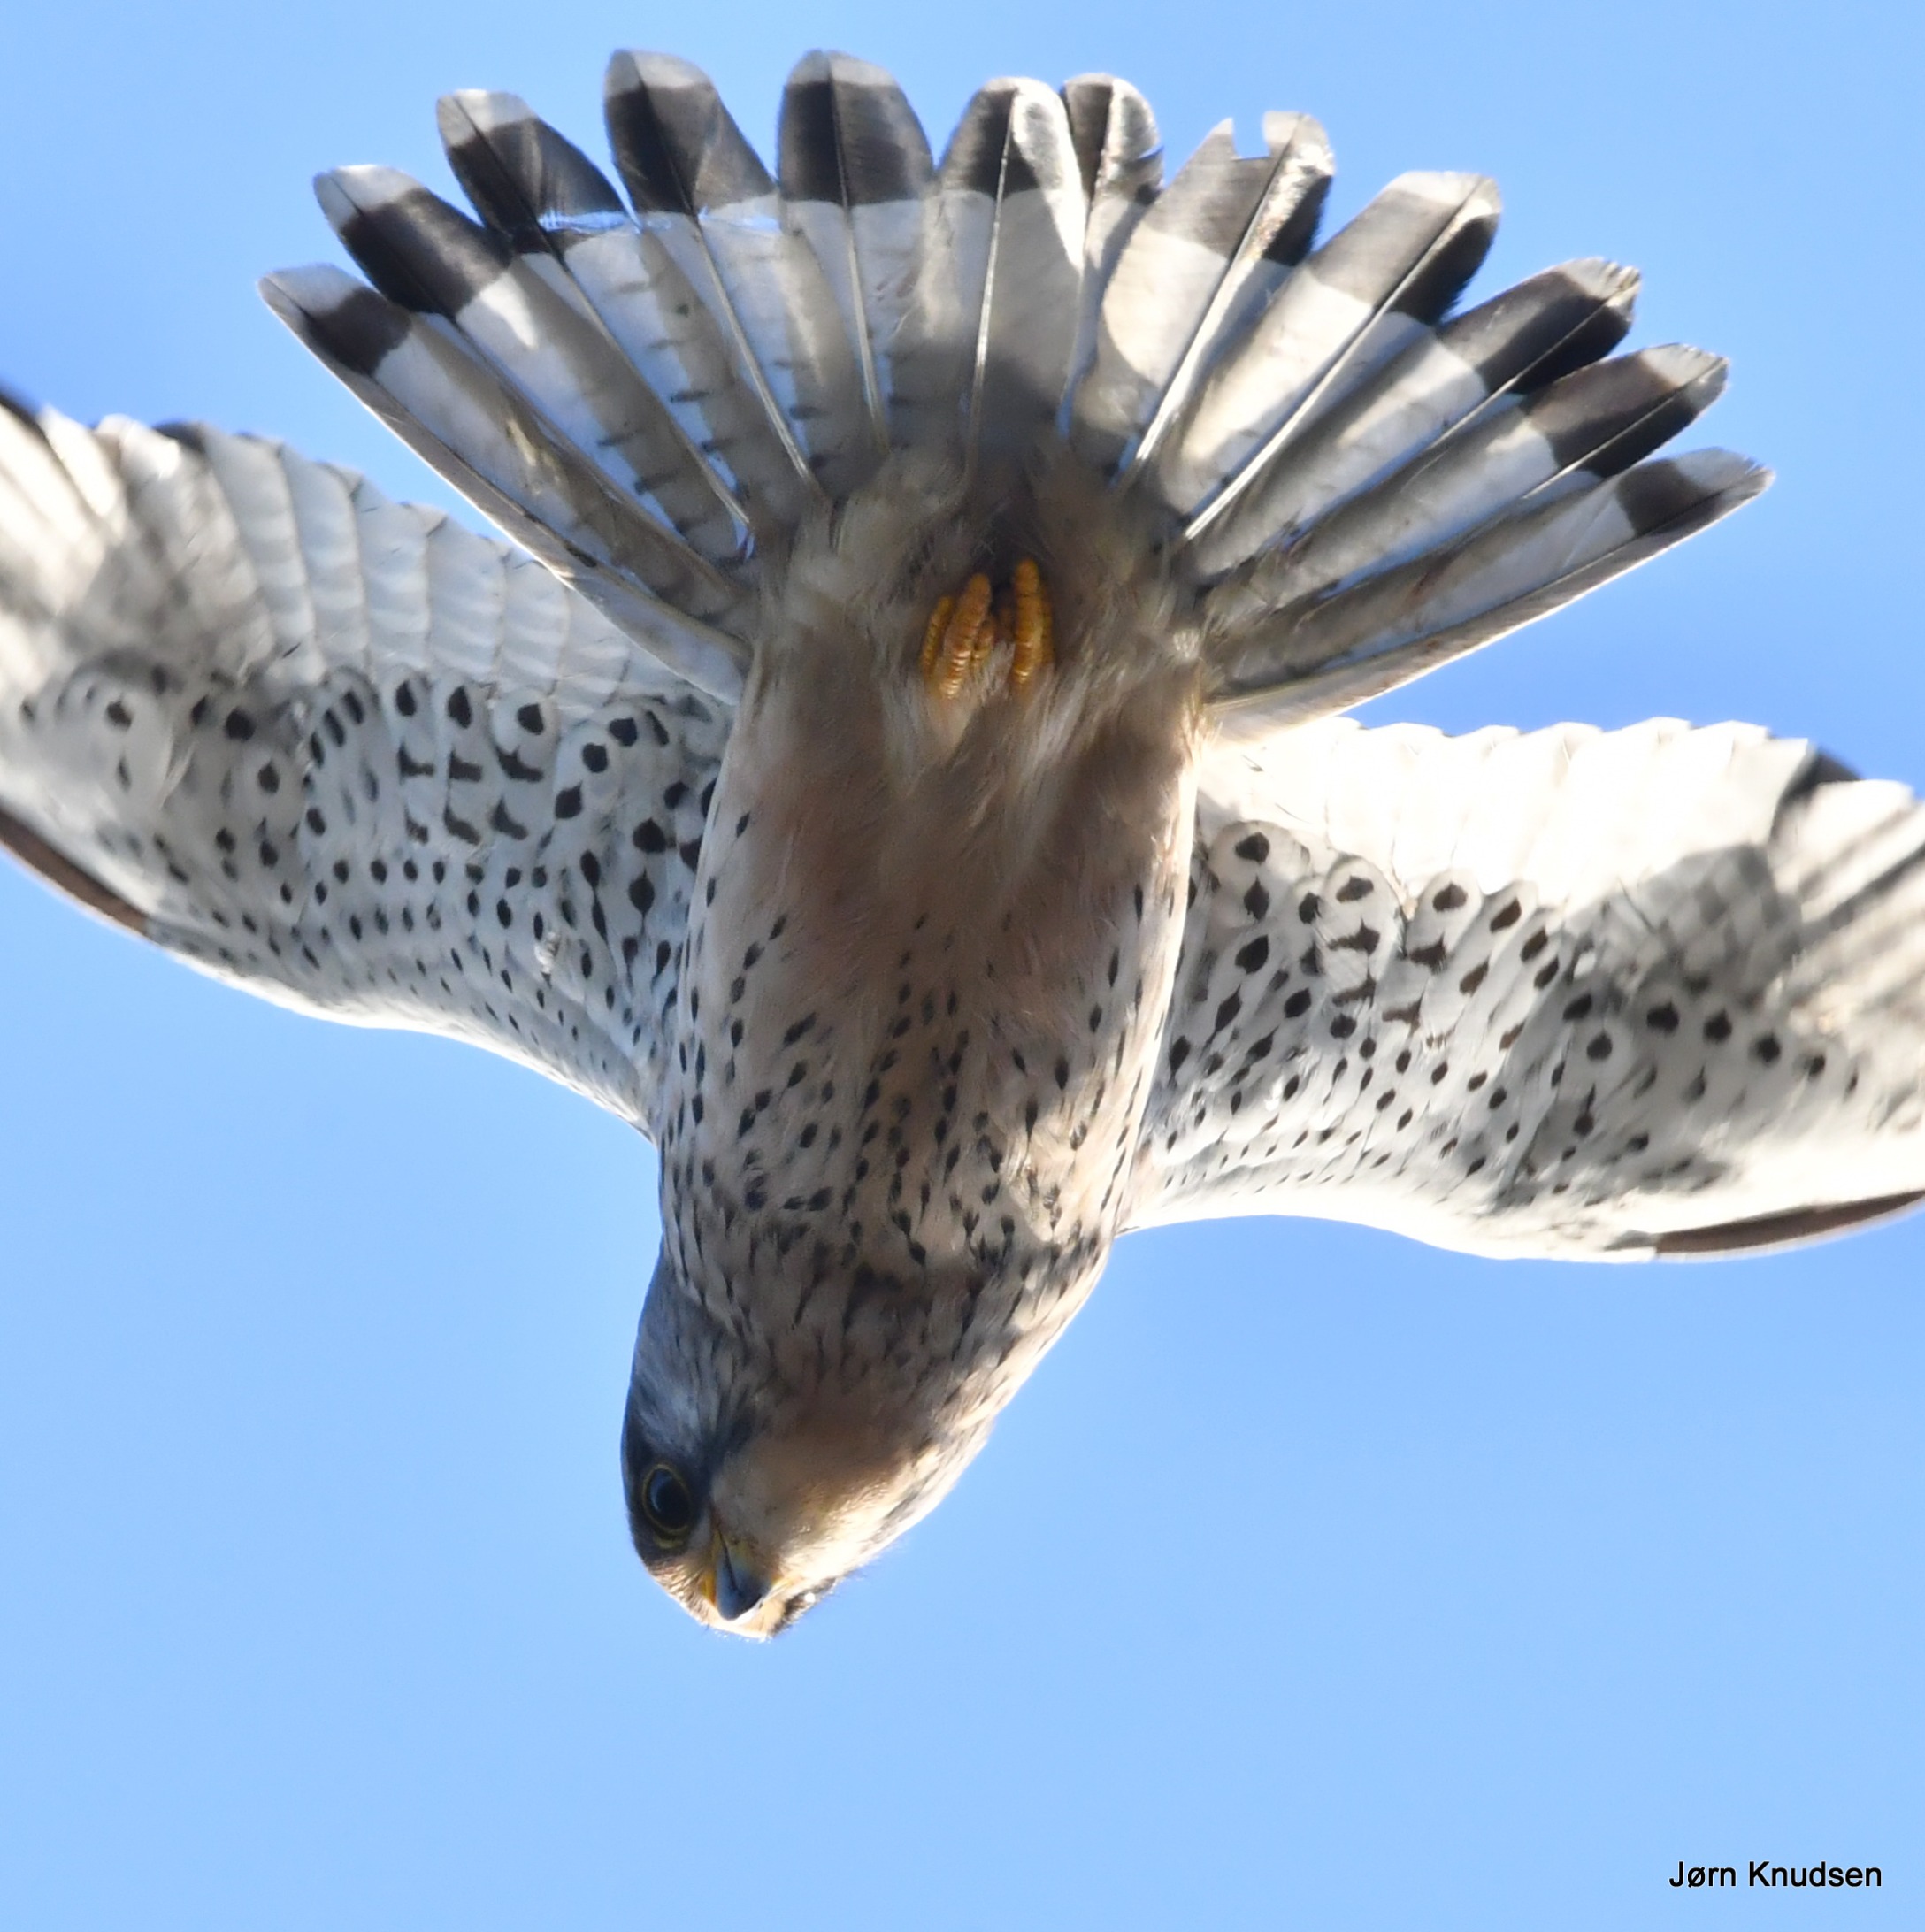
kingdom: Animalia
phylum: Chordata
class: Aves
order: Falconiformes
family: Falconidae
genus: Falco
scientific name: Falco tinnunculus
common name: Tårnfalk
